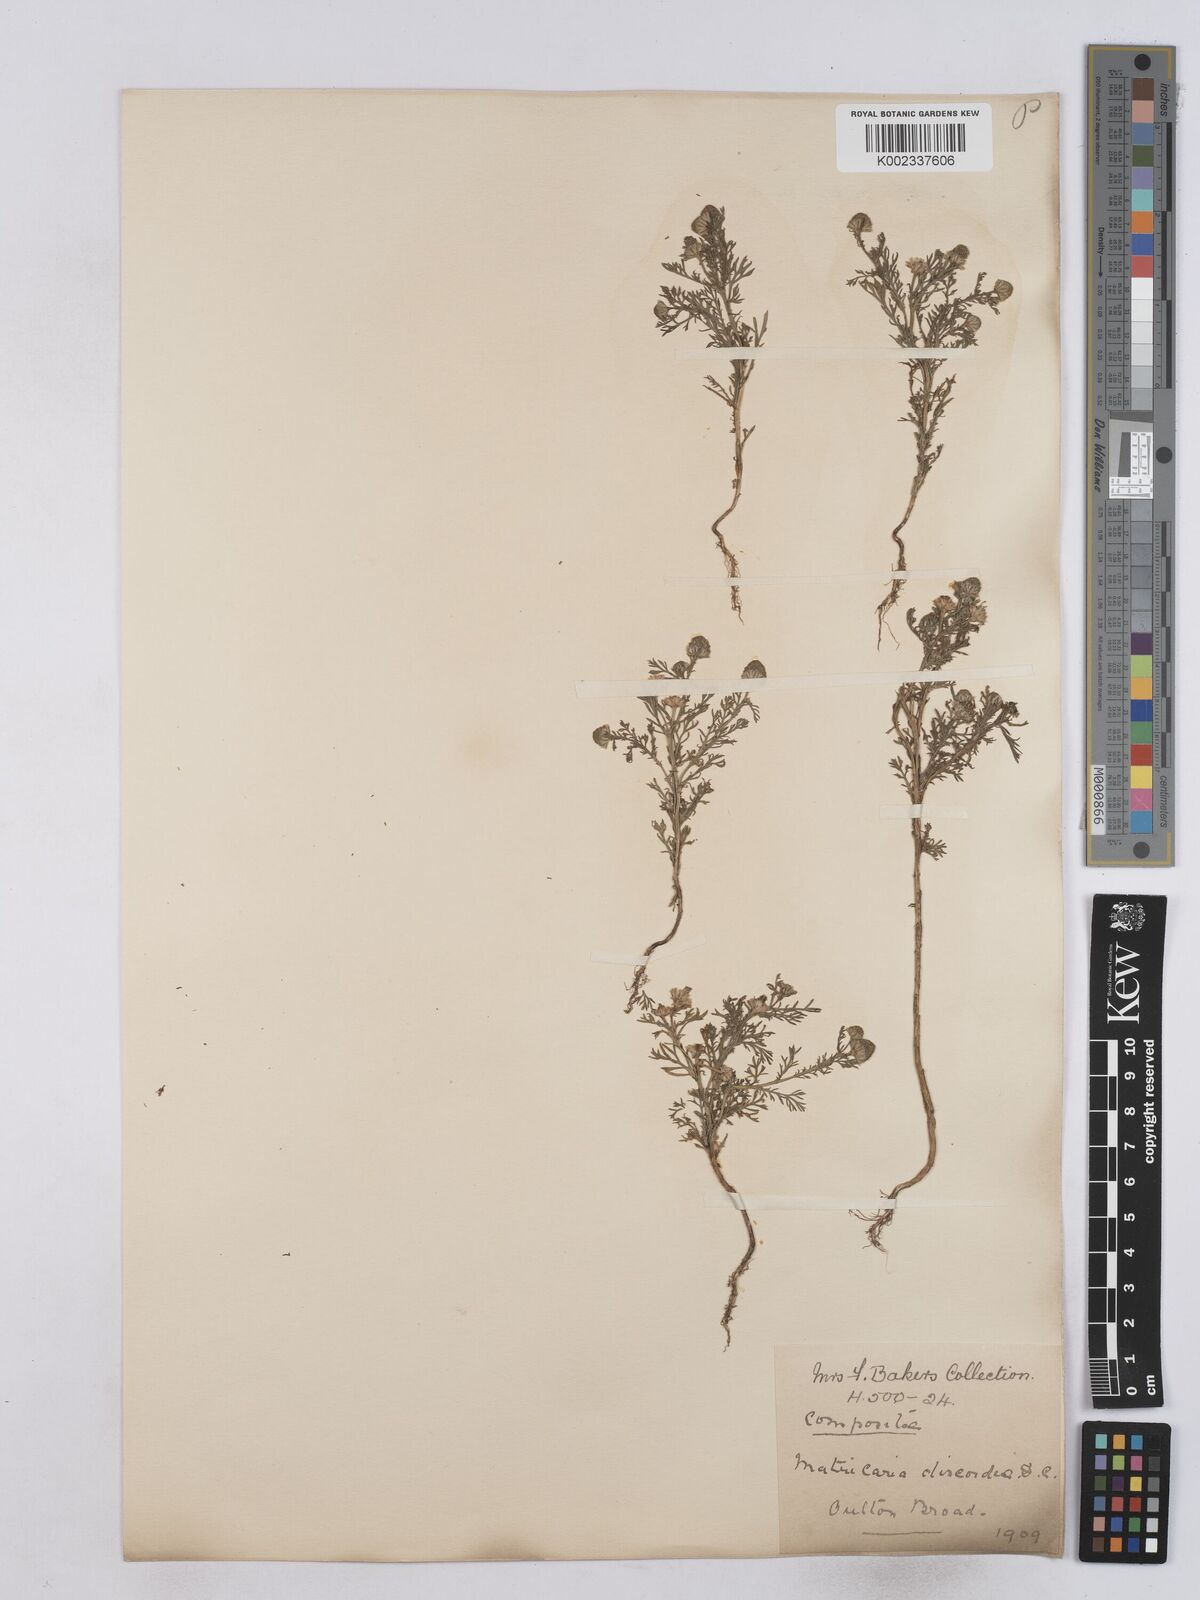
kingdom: Plantae
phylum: Tracheophyta
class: Magnoliopsida
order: Asterales
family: Asteraceae
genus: Matricaria
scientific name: Matricaria discoidea
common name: Disc mayweed
